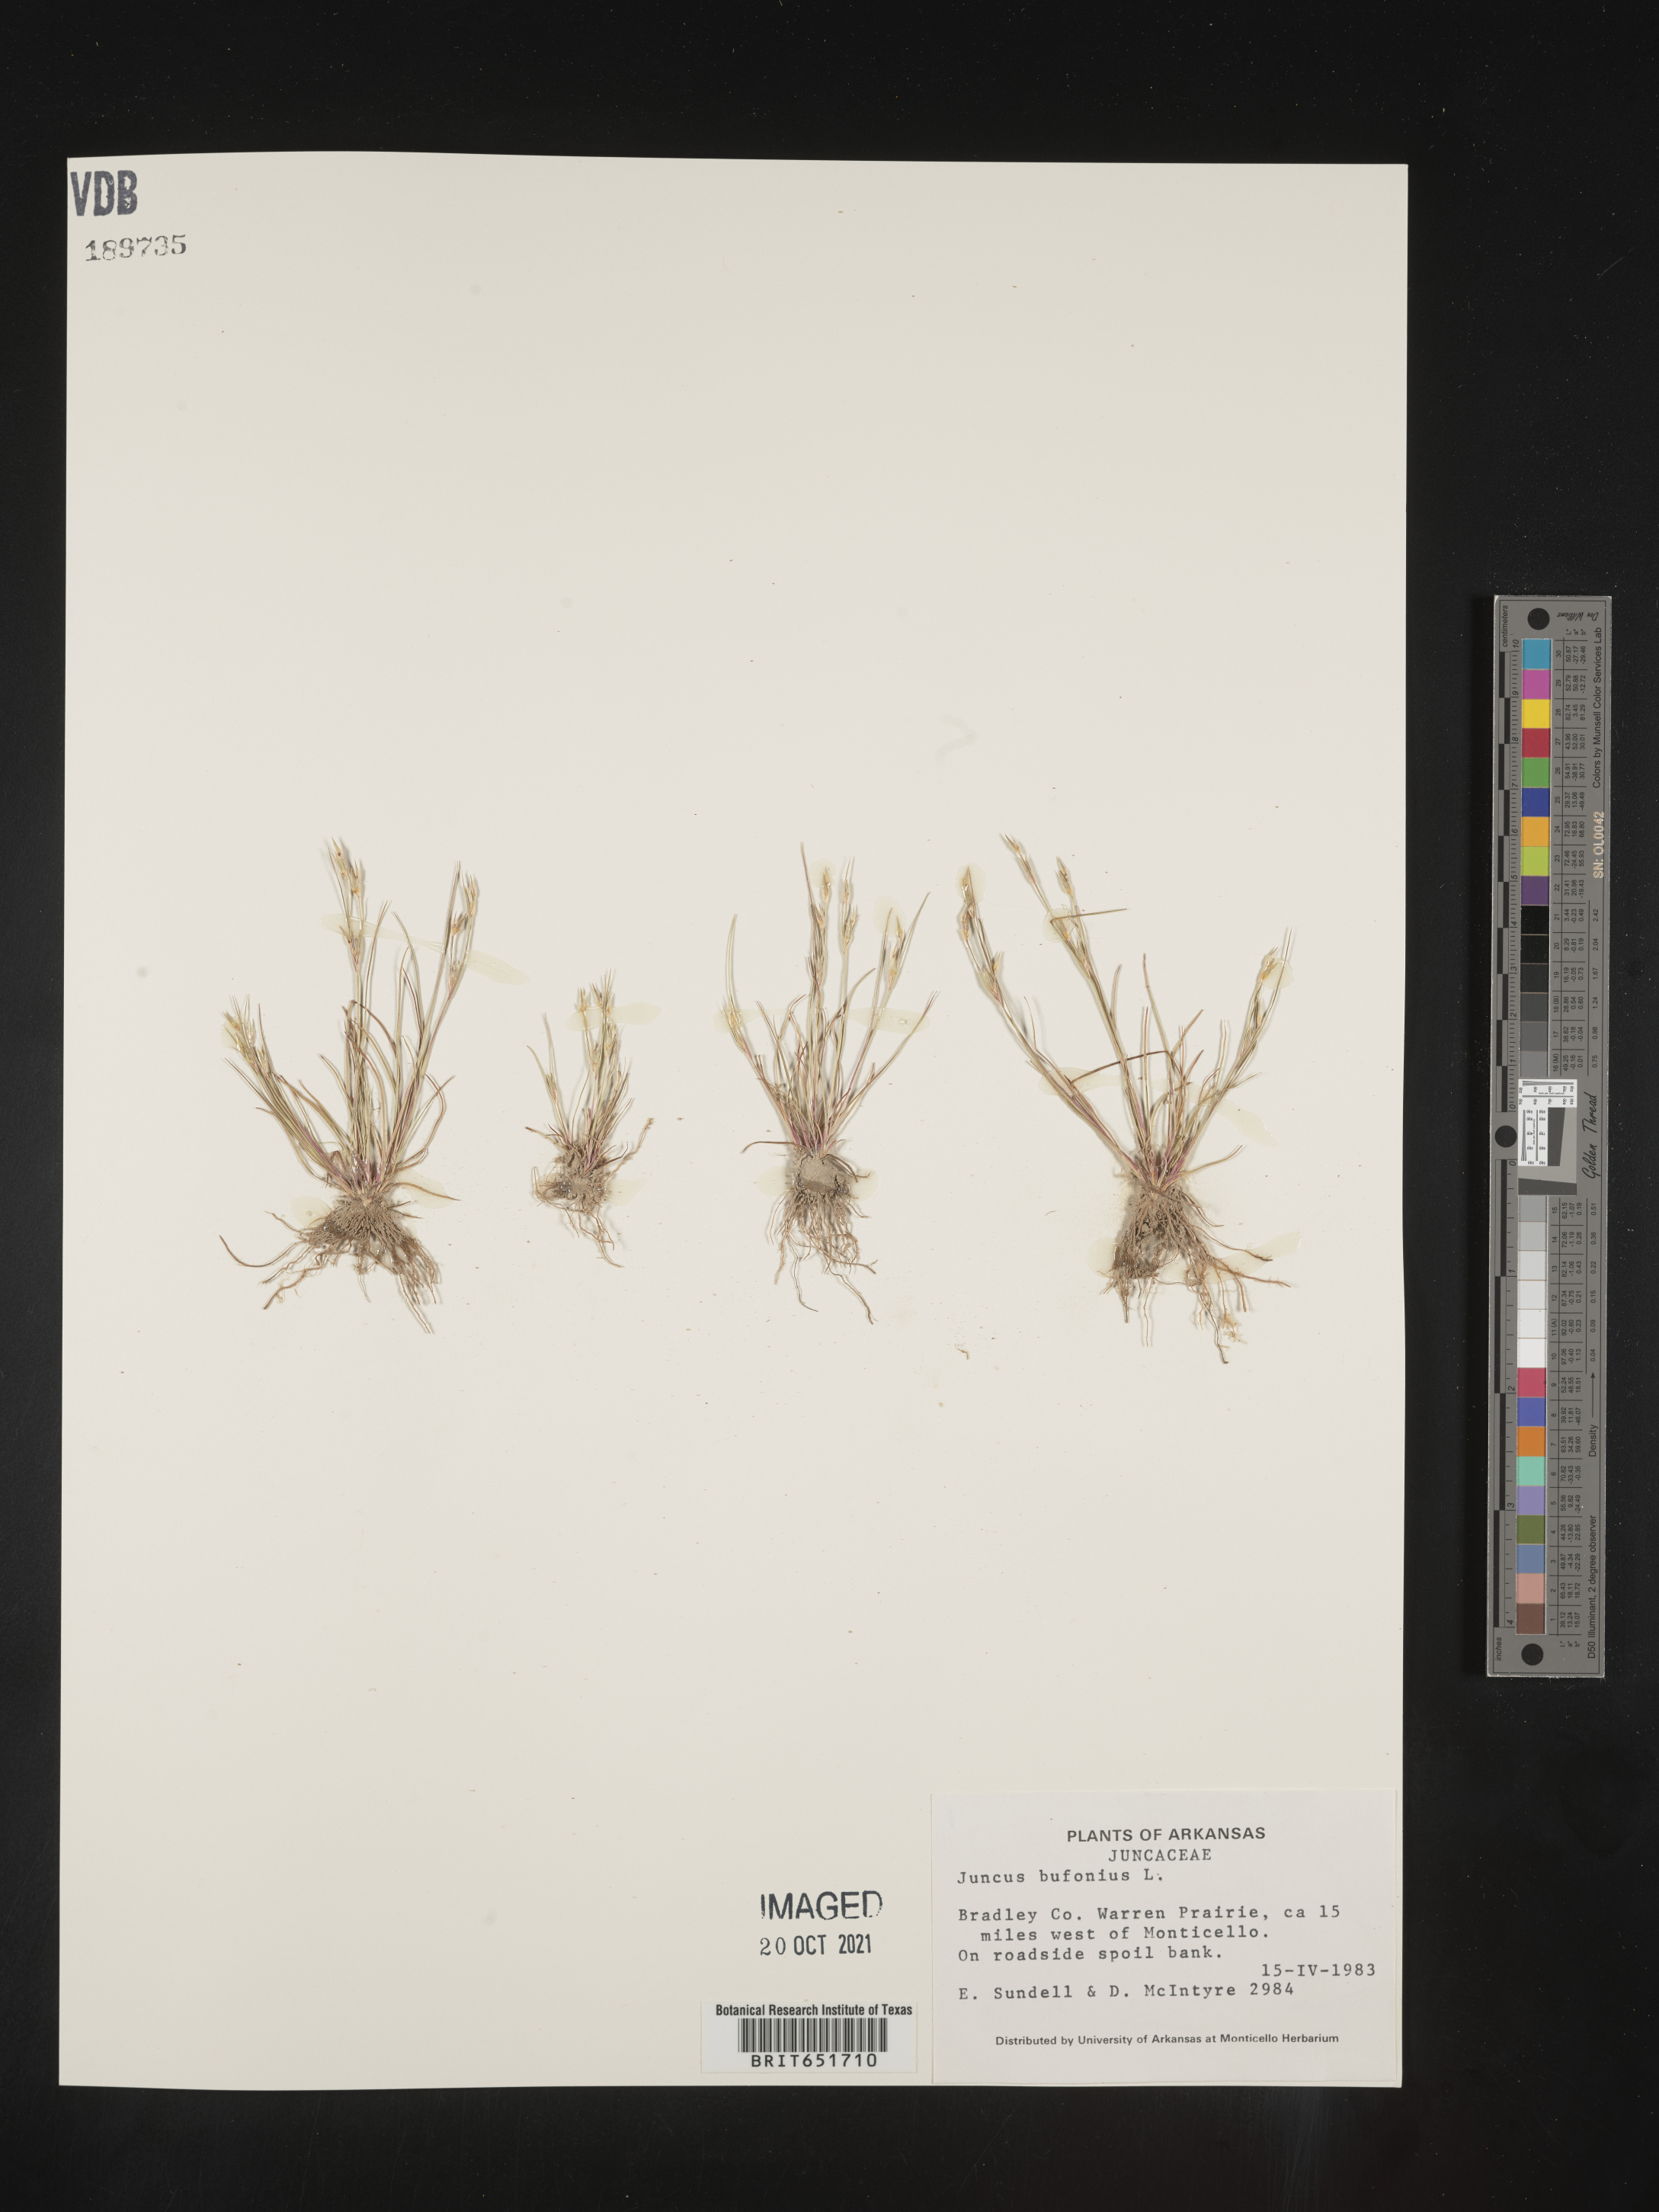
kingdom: Plantae
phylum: Tracheophyta
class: Liliopsida
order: Poales
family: Juncaceae
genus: Juncus
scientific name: Juncus bufonius
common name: Toad rush
